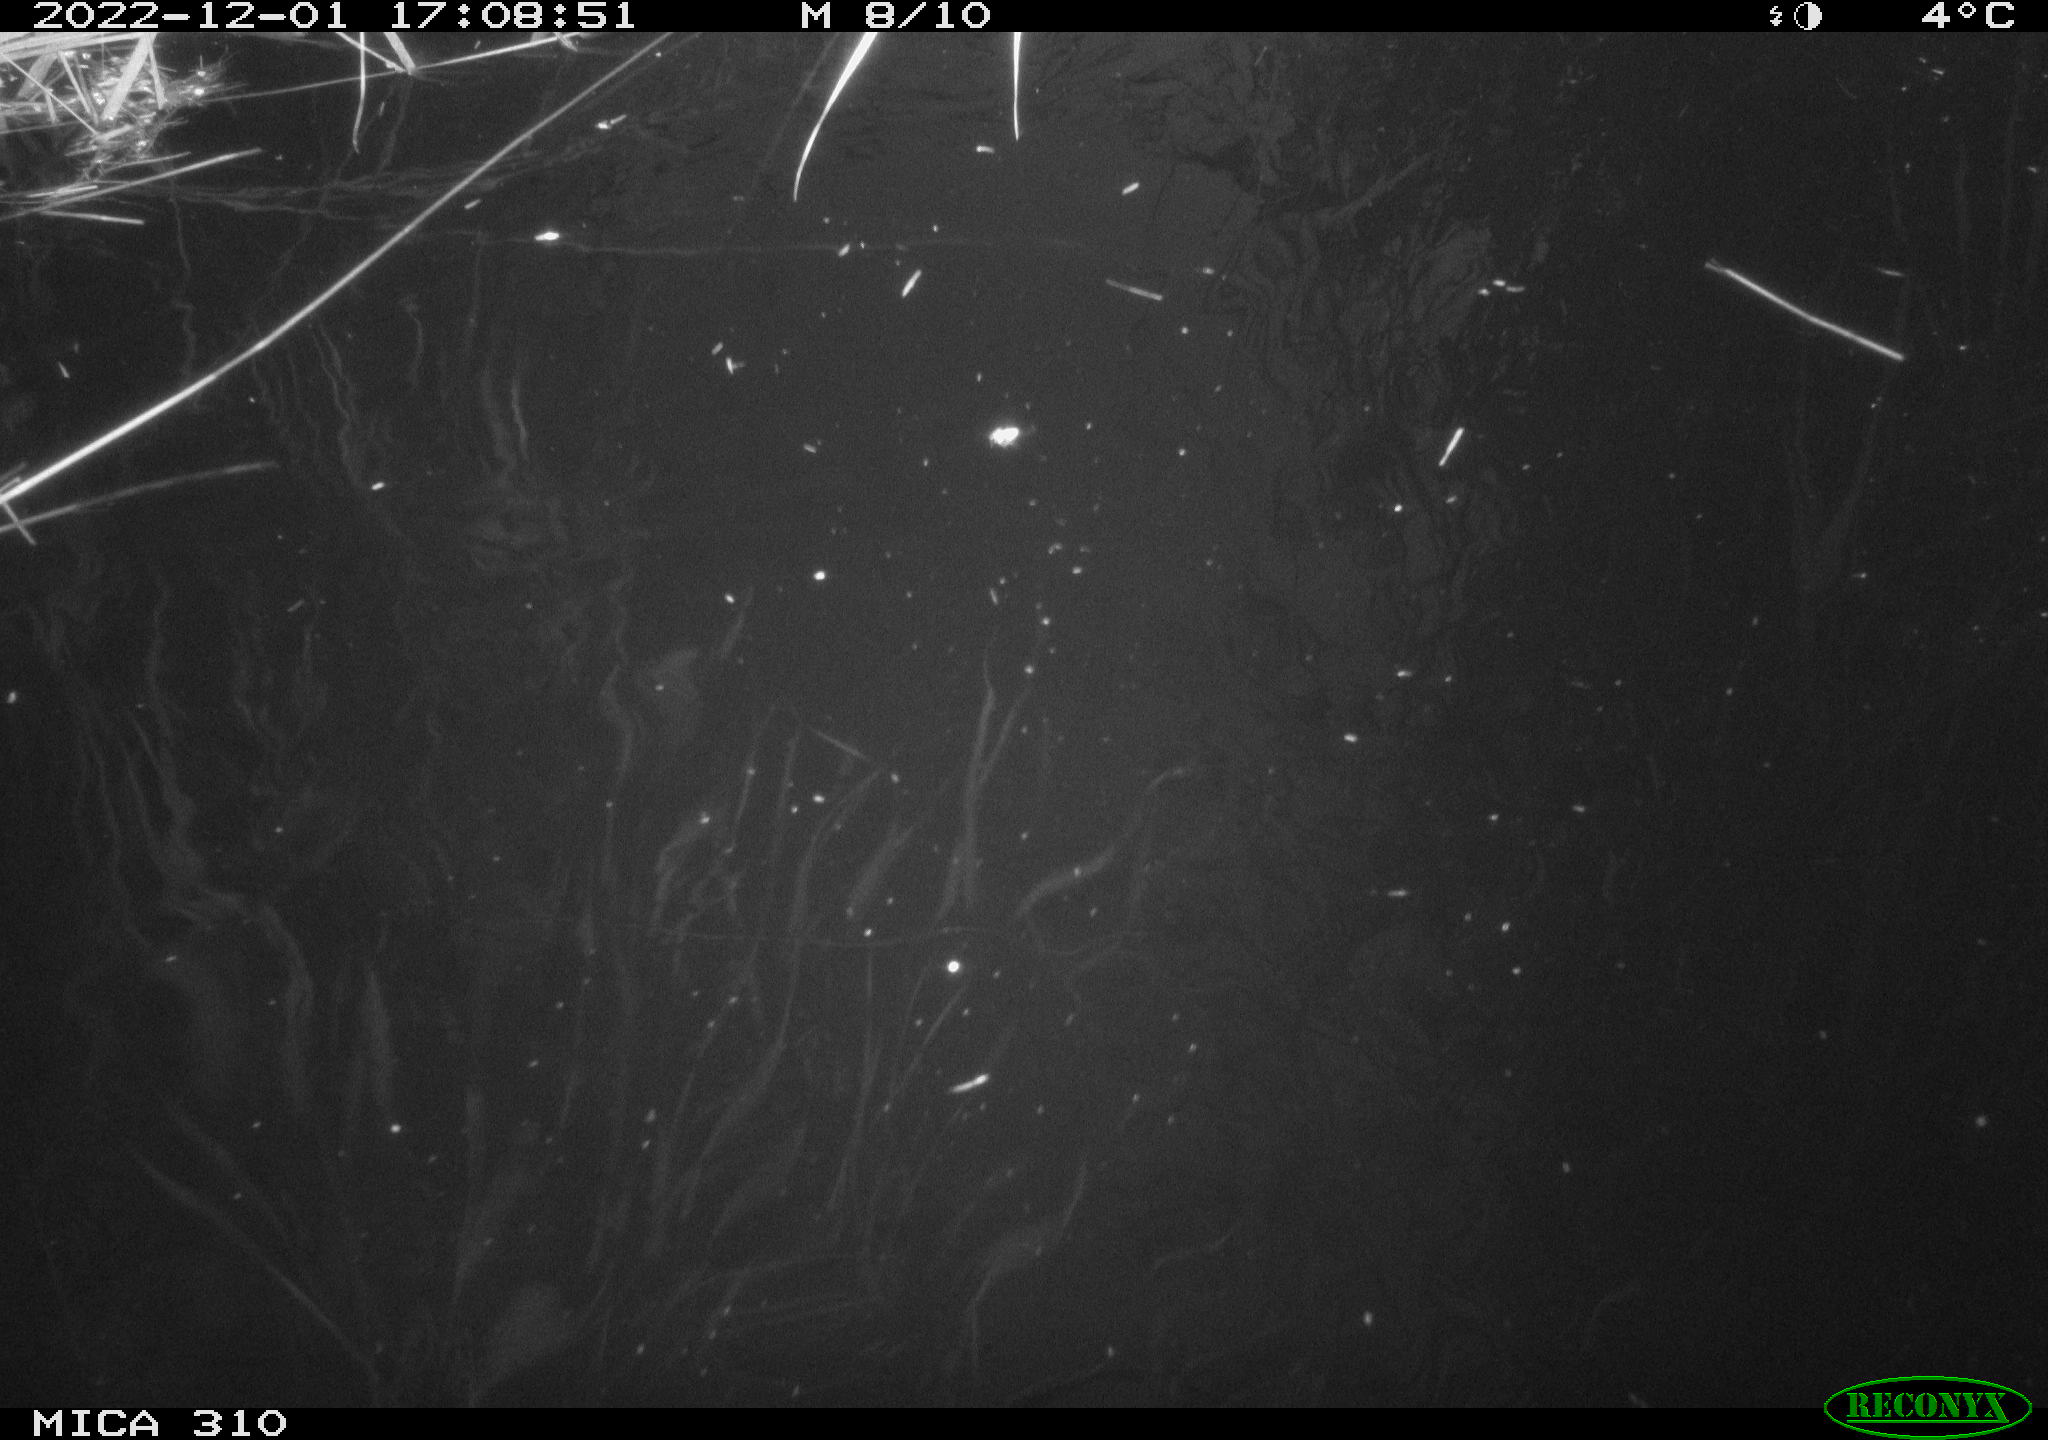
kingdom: Animalia
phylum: Chordata
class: Mammalia
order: Rodentia
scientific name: Rodentia
